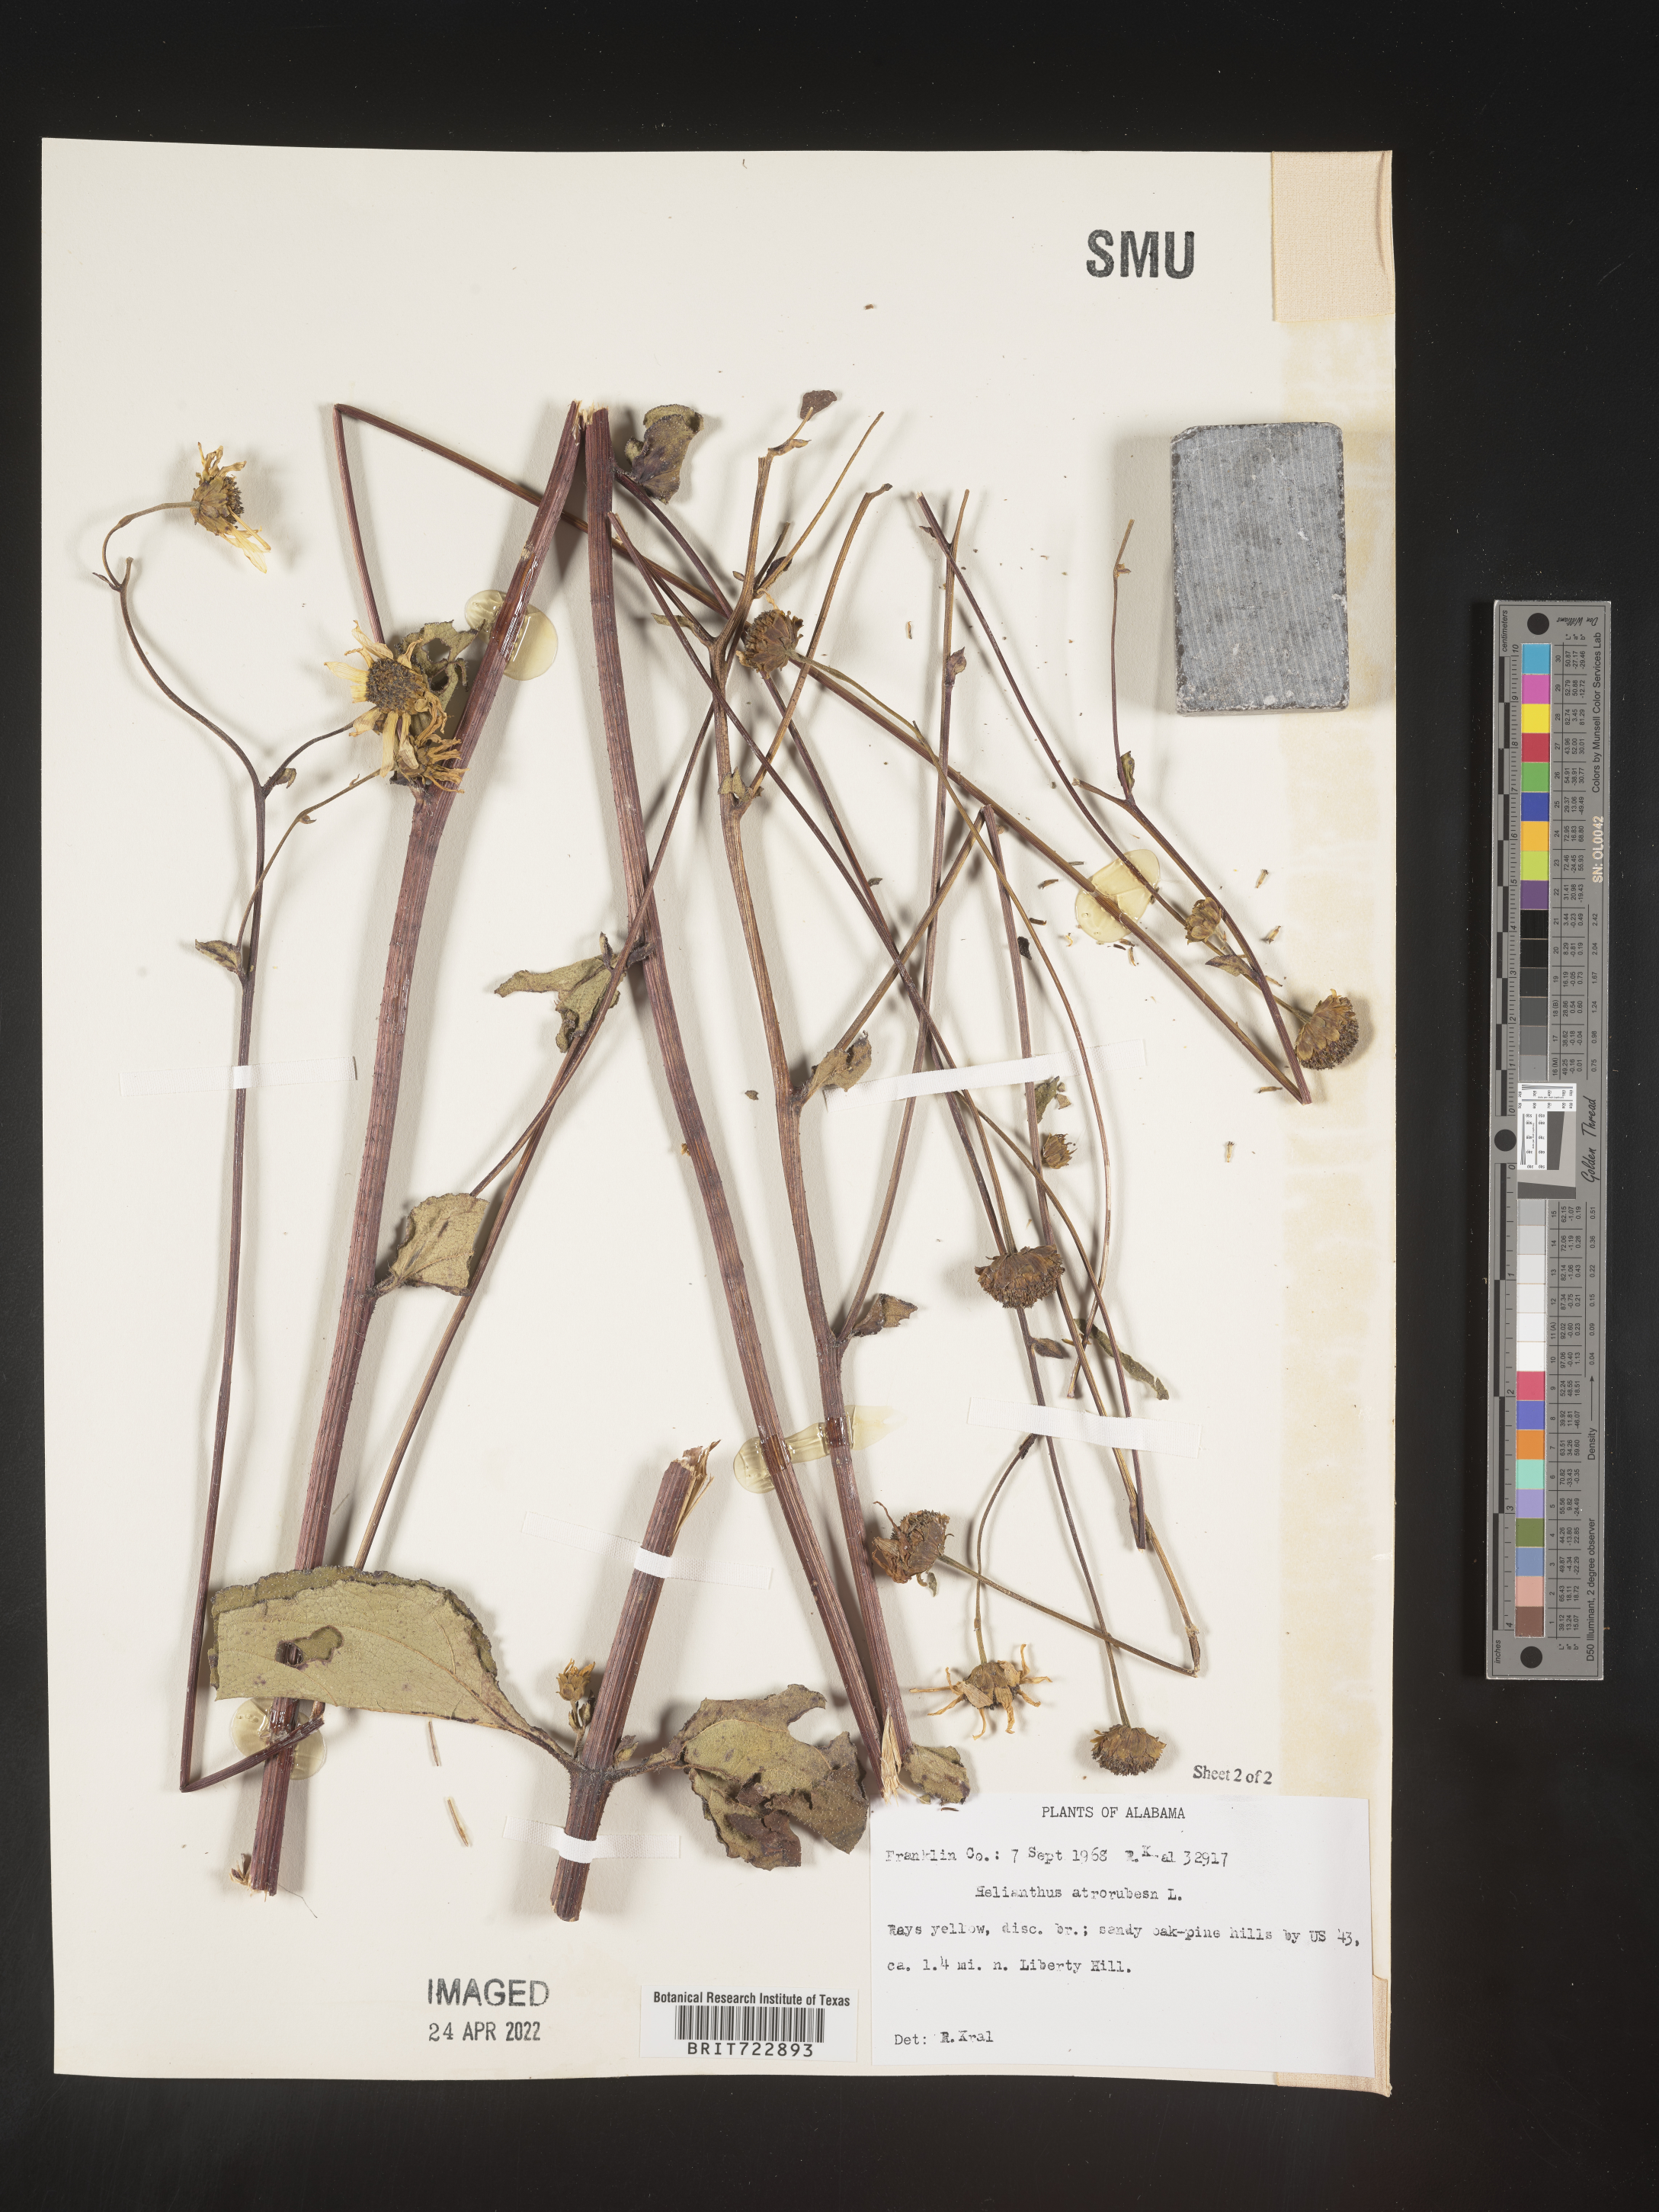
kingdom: Plantae
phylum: Tracheophyta
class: Magnoliopsida
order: Asterales
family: Asteraceae
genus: Helianthus
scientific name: Helianthus atrorubens
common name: Dark-eyed sunflower
